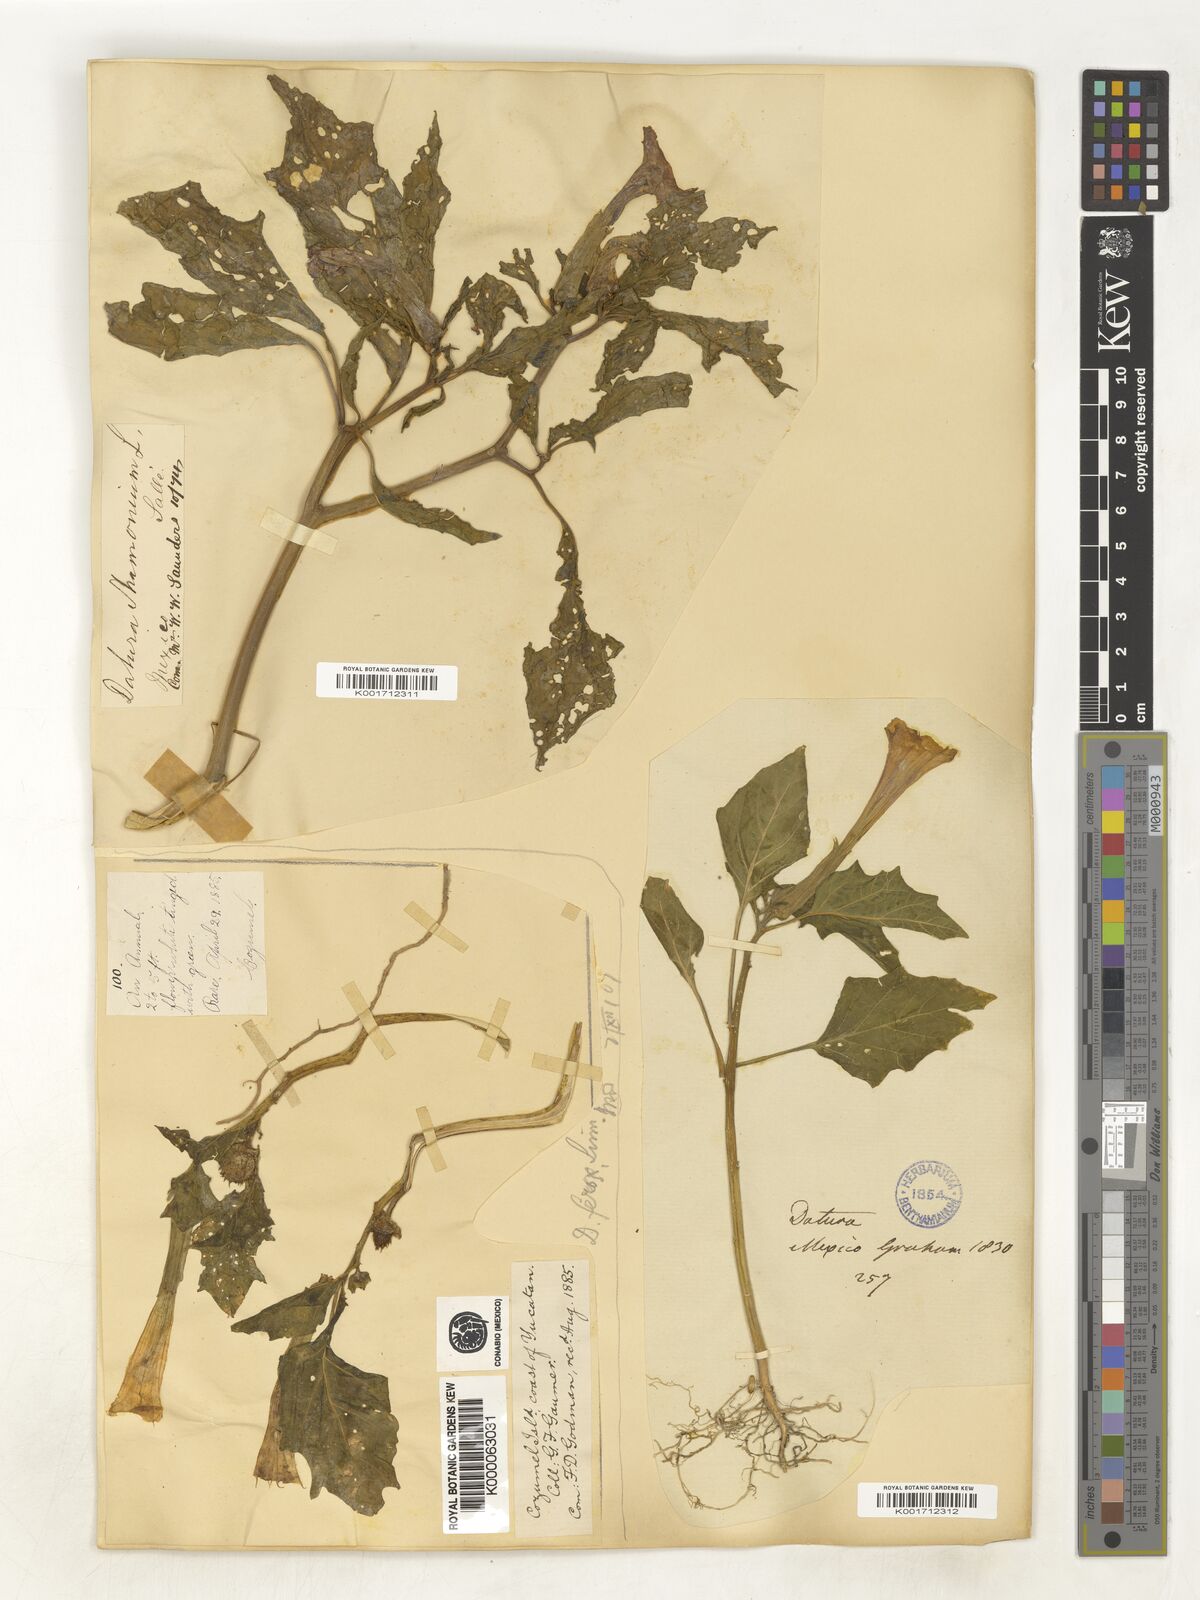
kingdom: Plantae
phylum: Tracheophyta
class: Magnoliopsida
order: Solanales
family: Solanaceae
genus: Datura
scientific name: Datura ferox
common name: Angel's-trumpets
